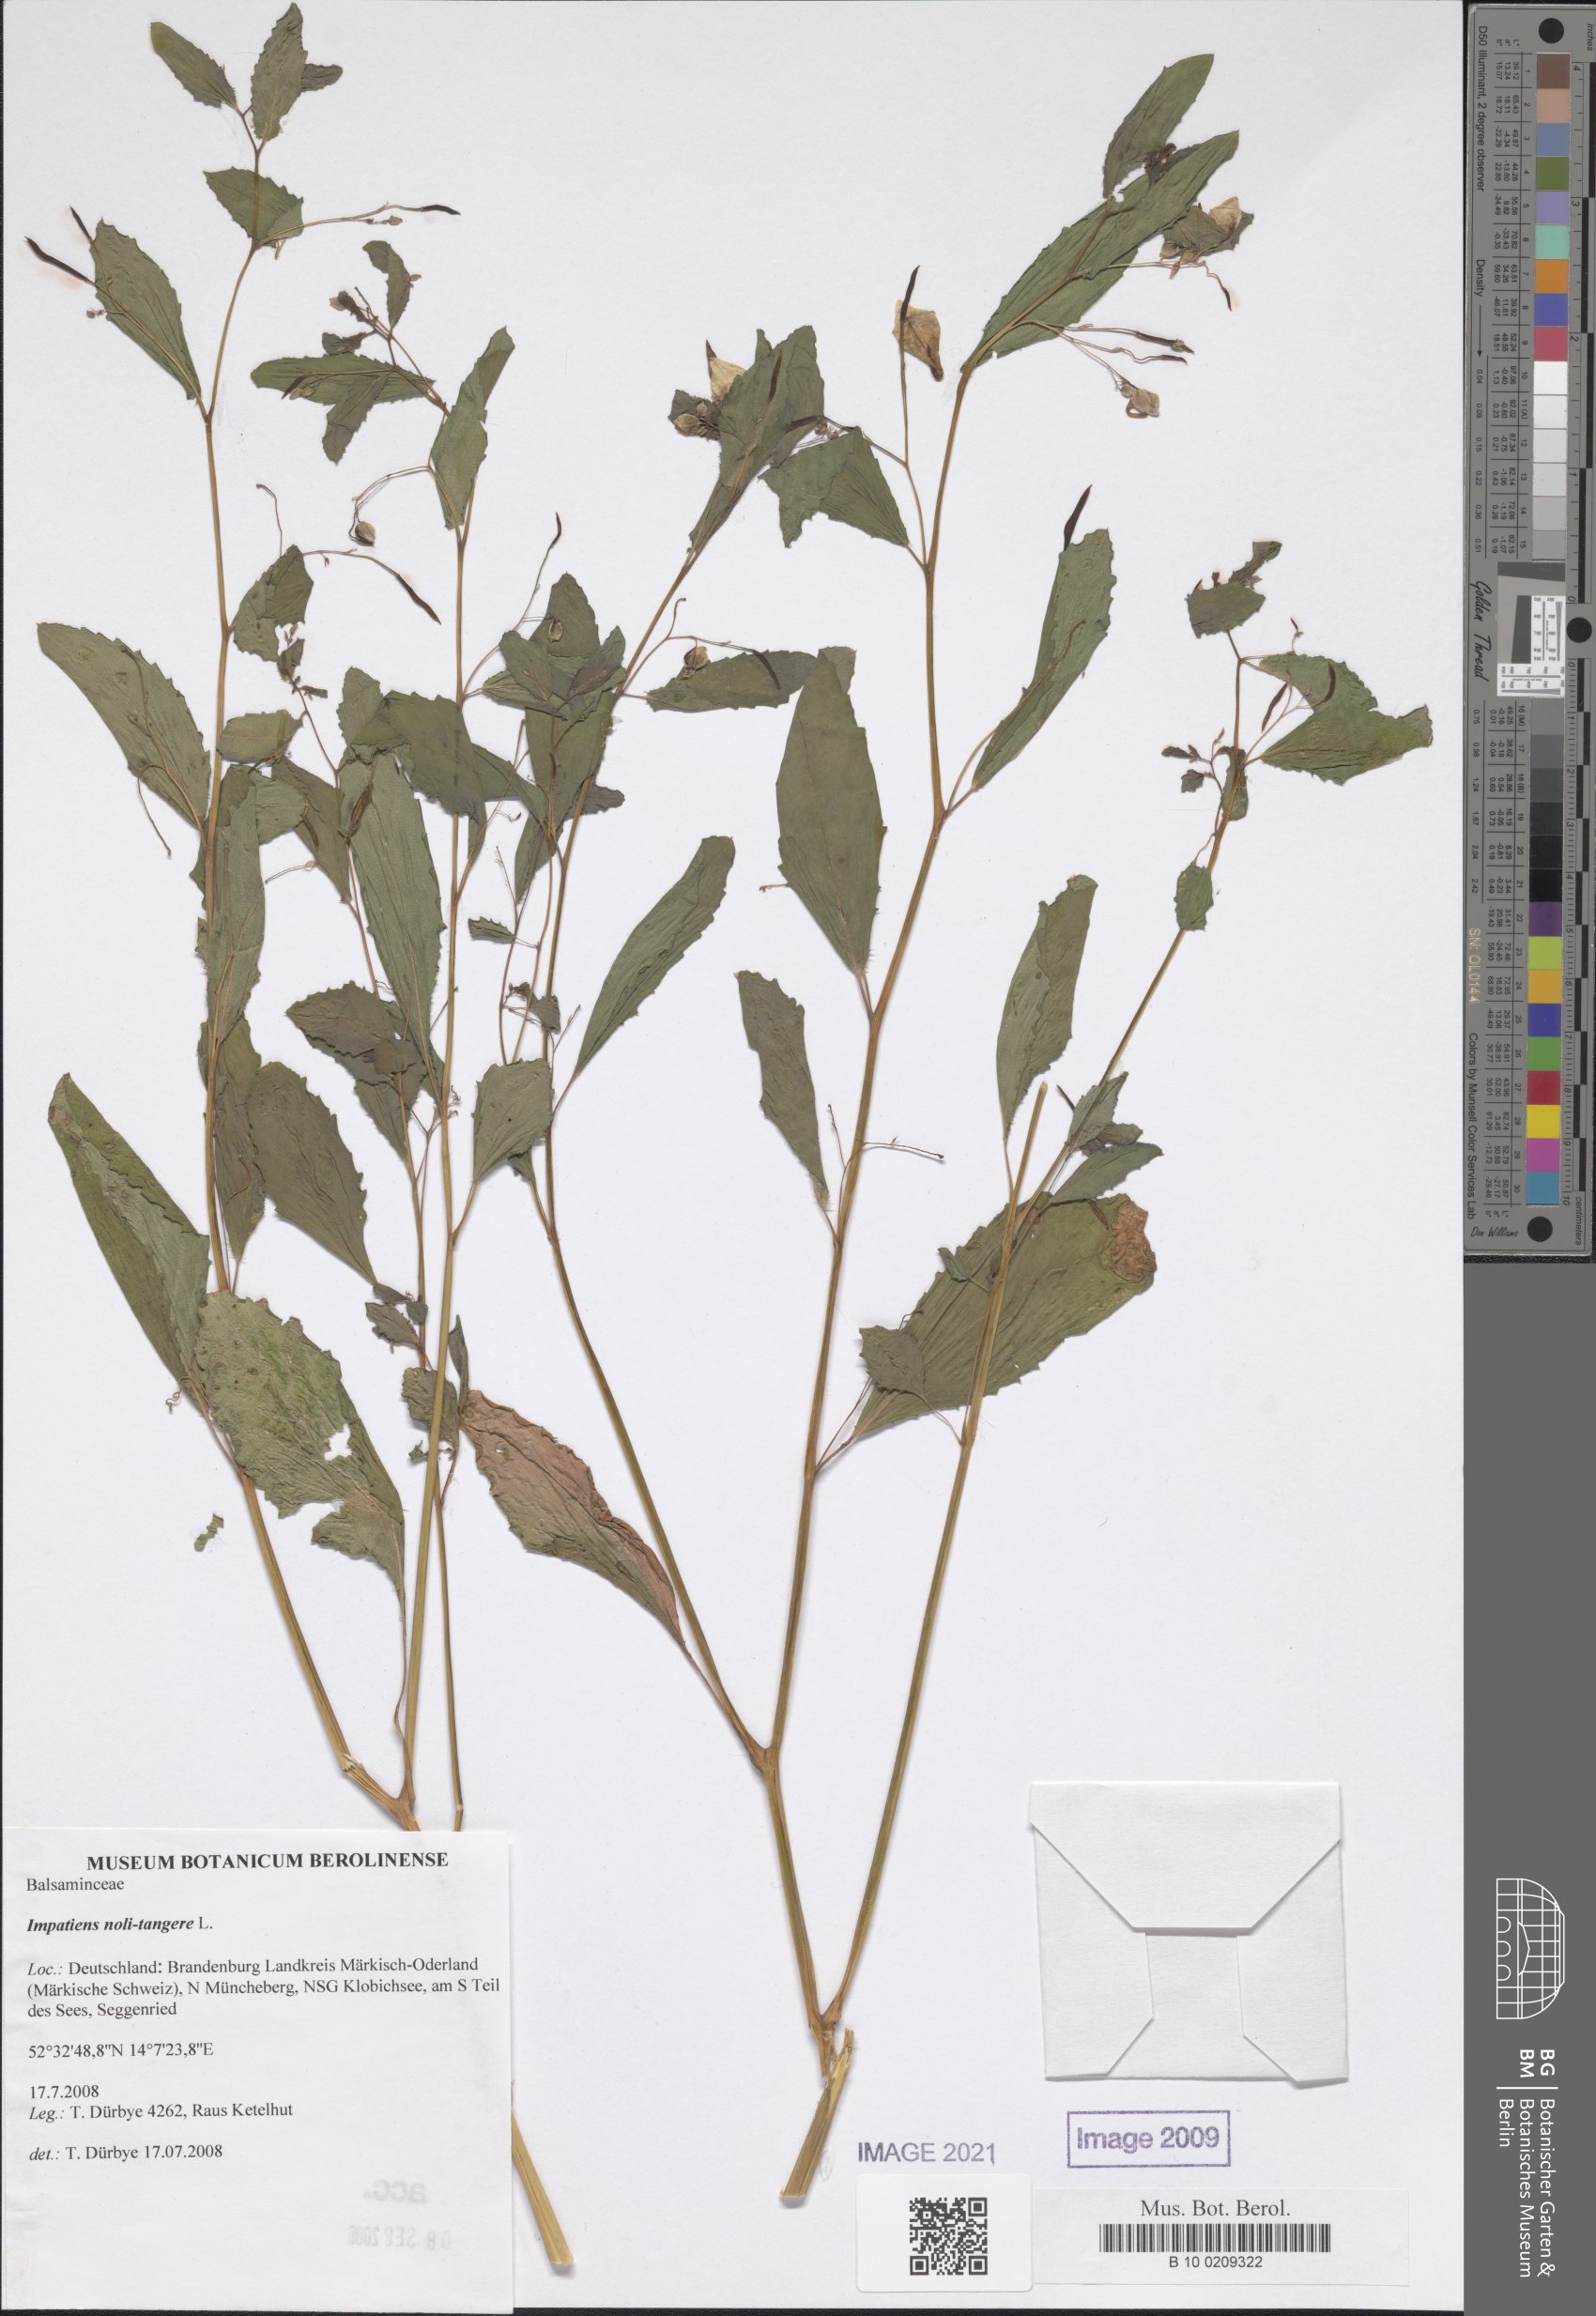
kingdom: Plantae
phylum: Tracheophyta
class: Magnoliopsida
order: Ericales
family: Balsaminaceae
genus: Impatiens
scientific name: Impatiens noli-tangere
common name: Touch-me-not balsam
